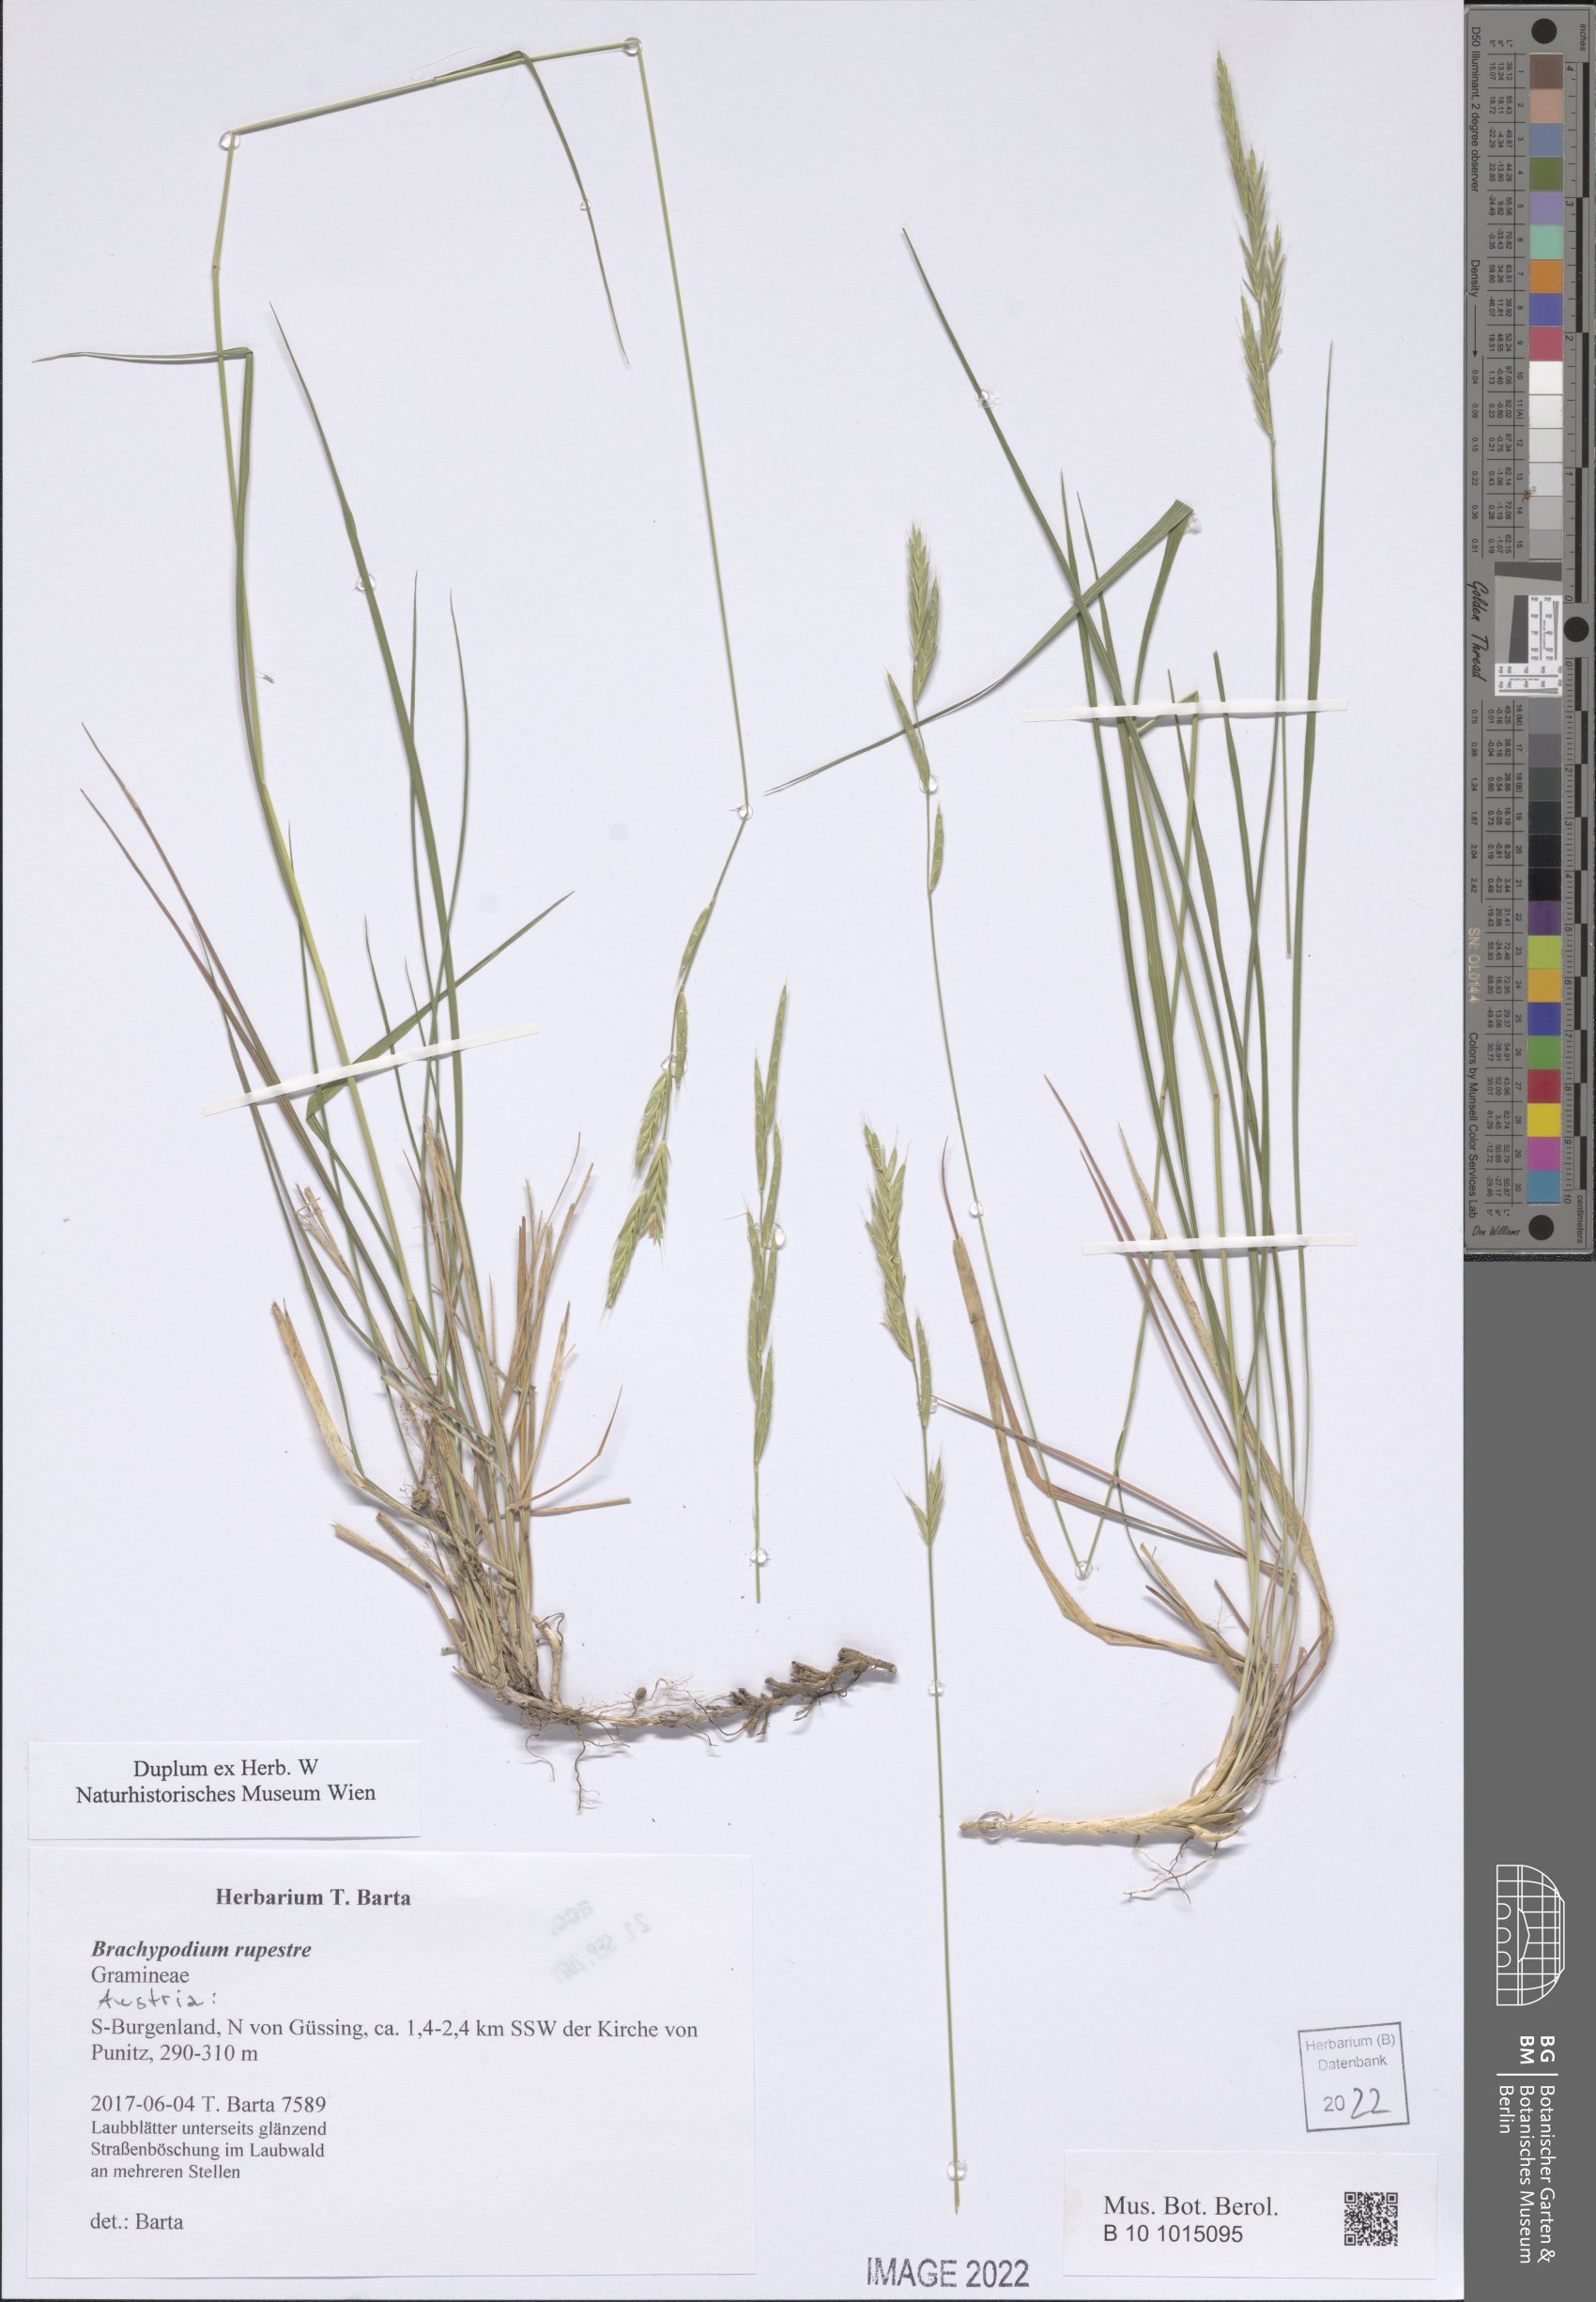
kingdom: Plantae
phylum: Tracheophyta
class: Liliopsida
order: Poales
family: Poaceae
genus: Brachypodium
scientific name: Brachypodium pinnatum
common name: Tor grass
